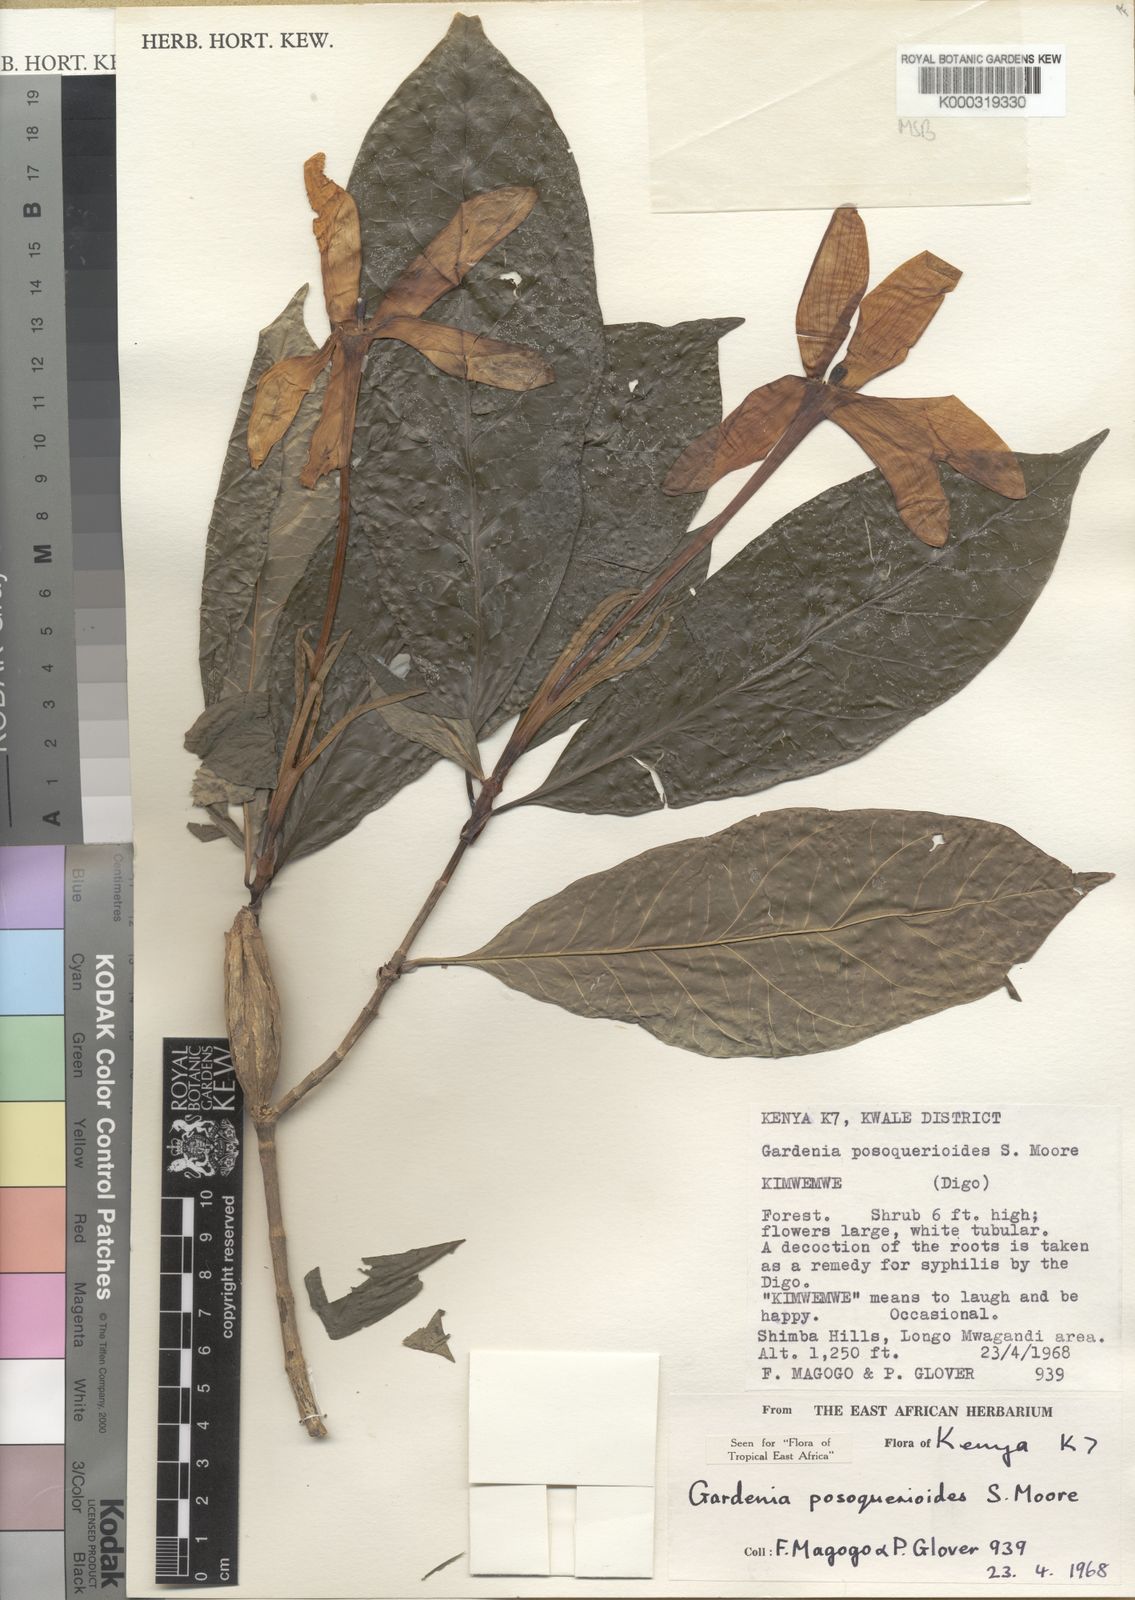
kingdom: Plantae
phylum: Tracheophyta
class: Magnoliopsida
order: Gentianales
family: Rubiaceae
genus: Gardenia
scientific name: Gardenia posoquerioides
